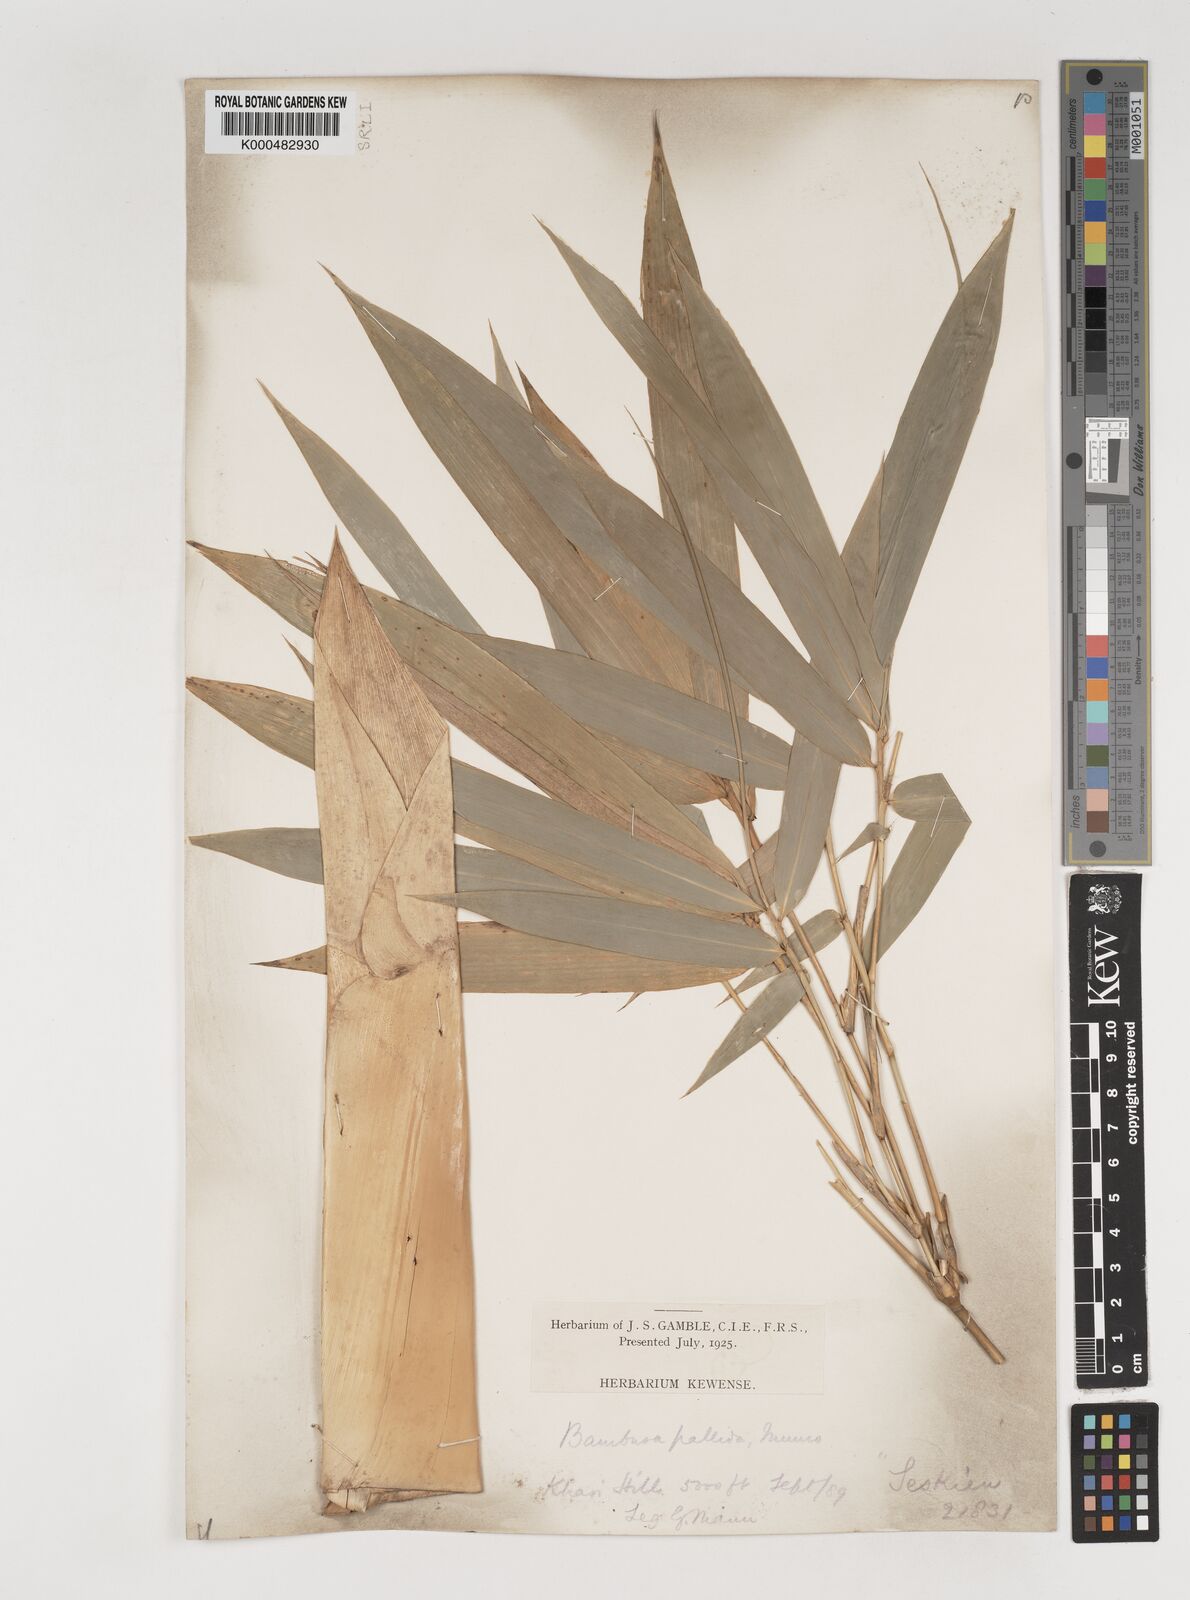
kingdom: Plantae
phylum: Tracheophyta
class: Liliopsida
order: Poales
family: Poaceae
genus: Bambusa
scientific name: Bambusa pallida
